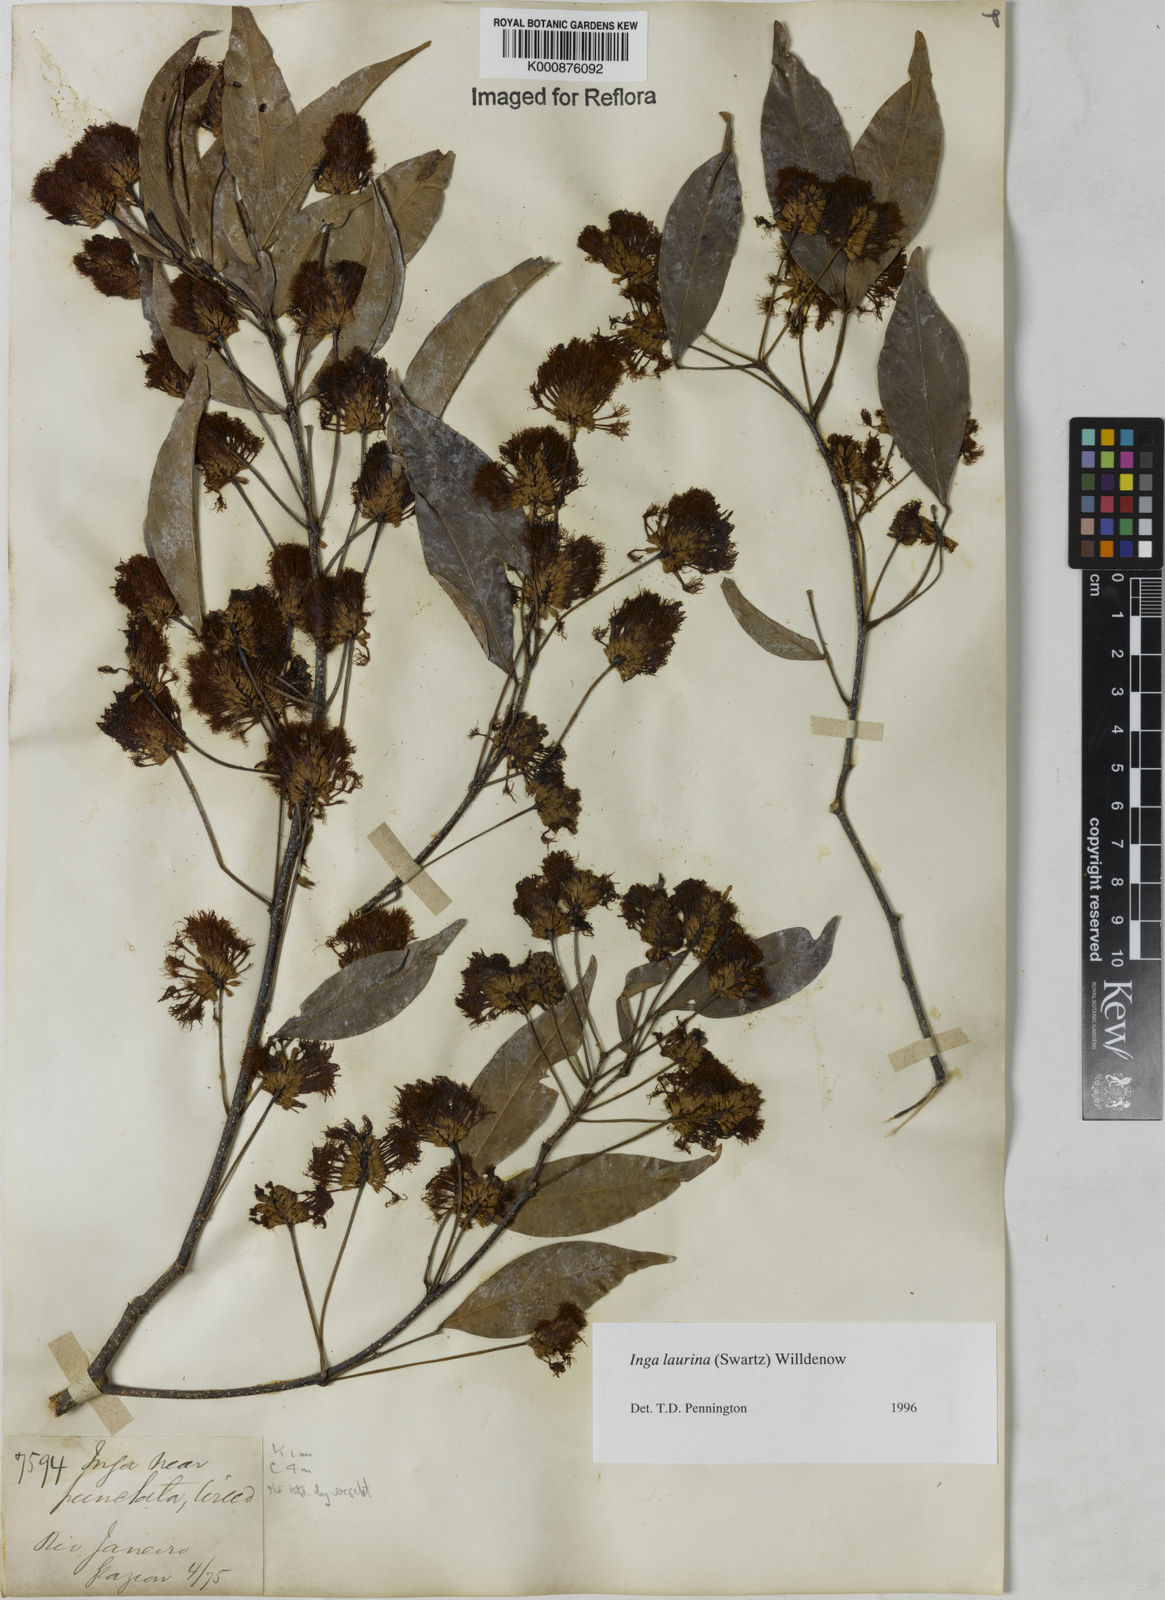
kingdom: Plantae
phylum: Tracheophyta
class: Magnoliopsida
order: Fabales
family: Fabaceae
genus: Inga
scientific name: Inga laurina
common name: Red wood
